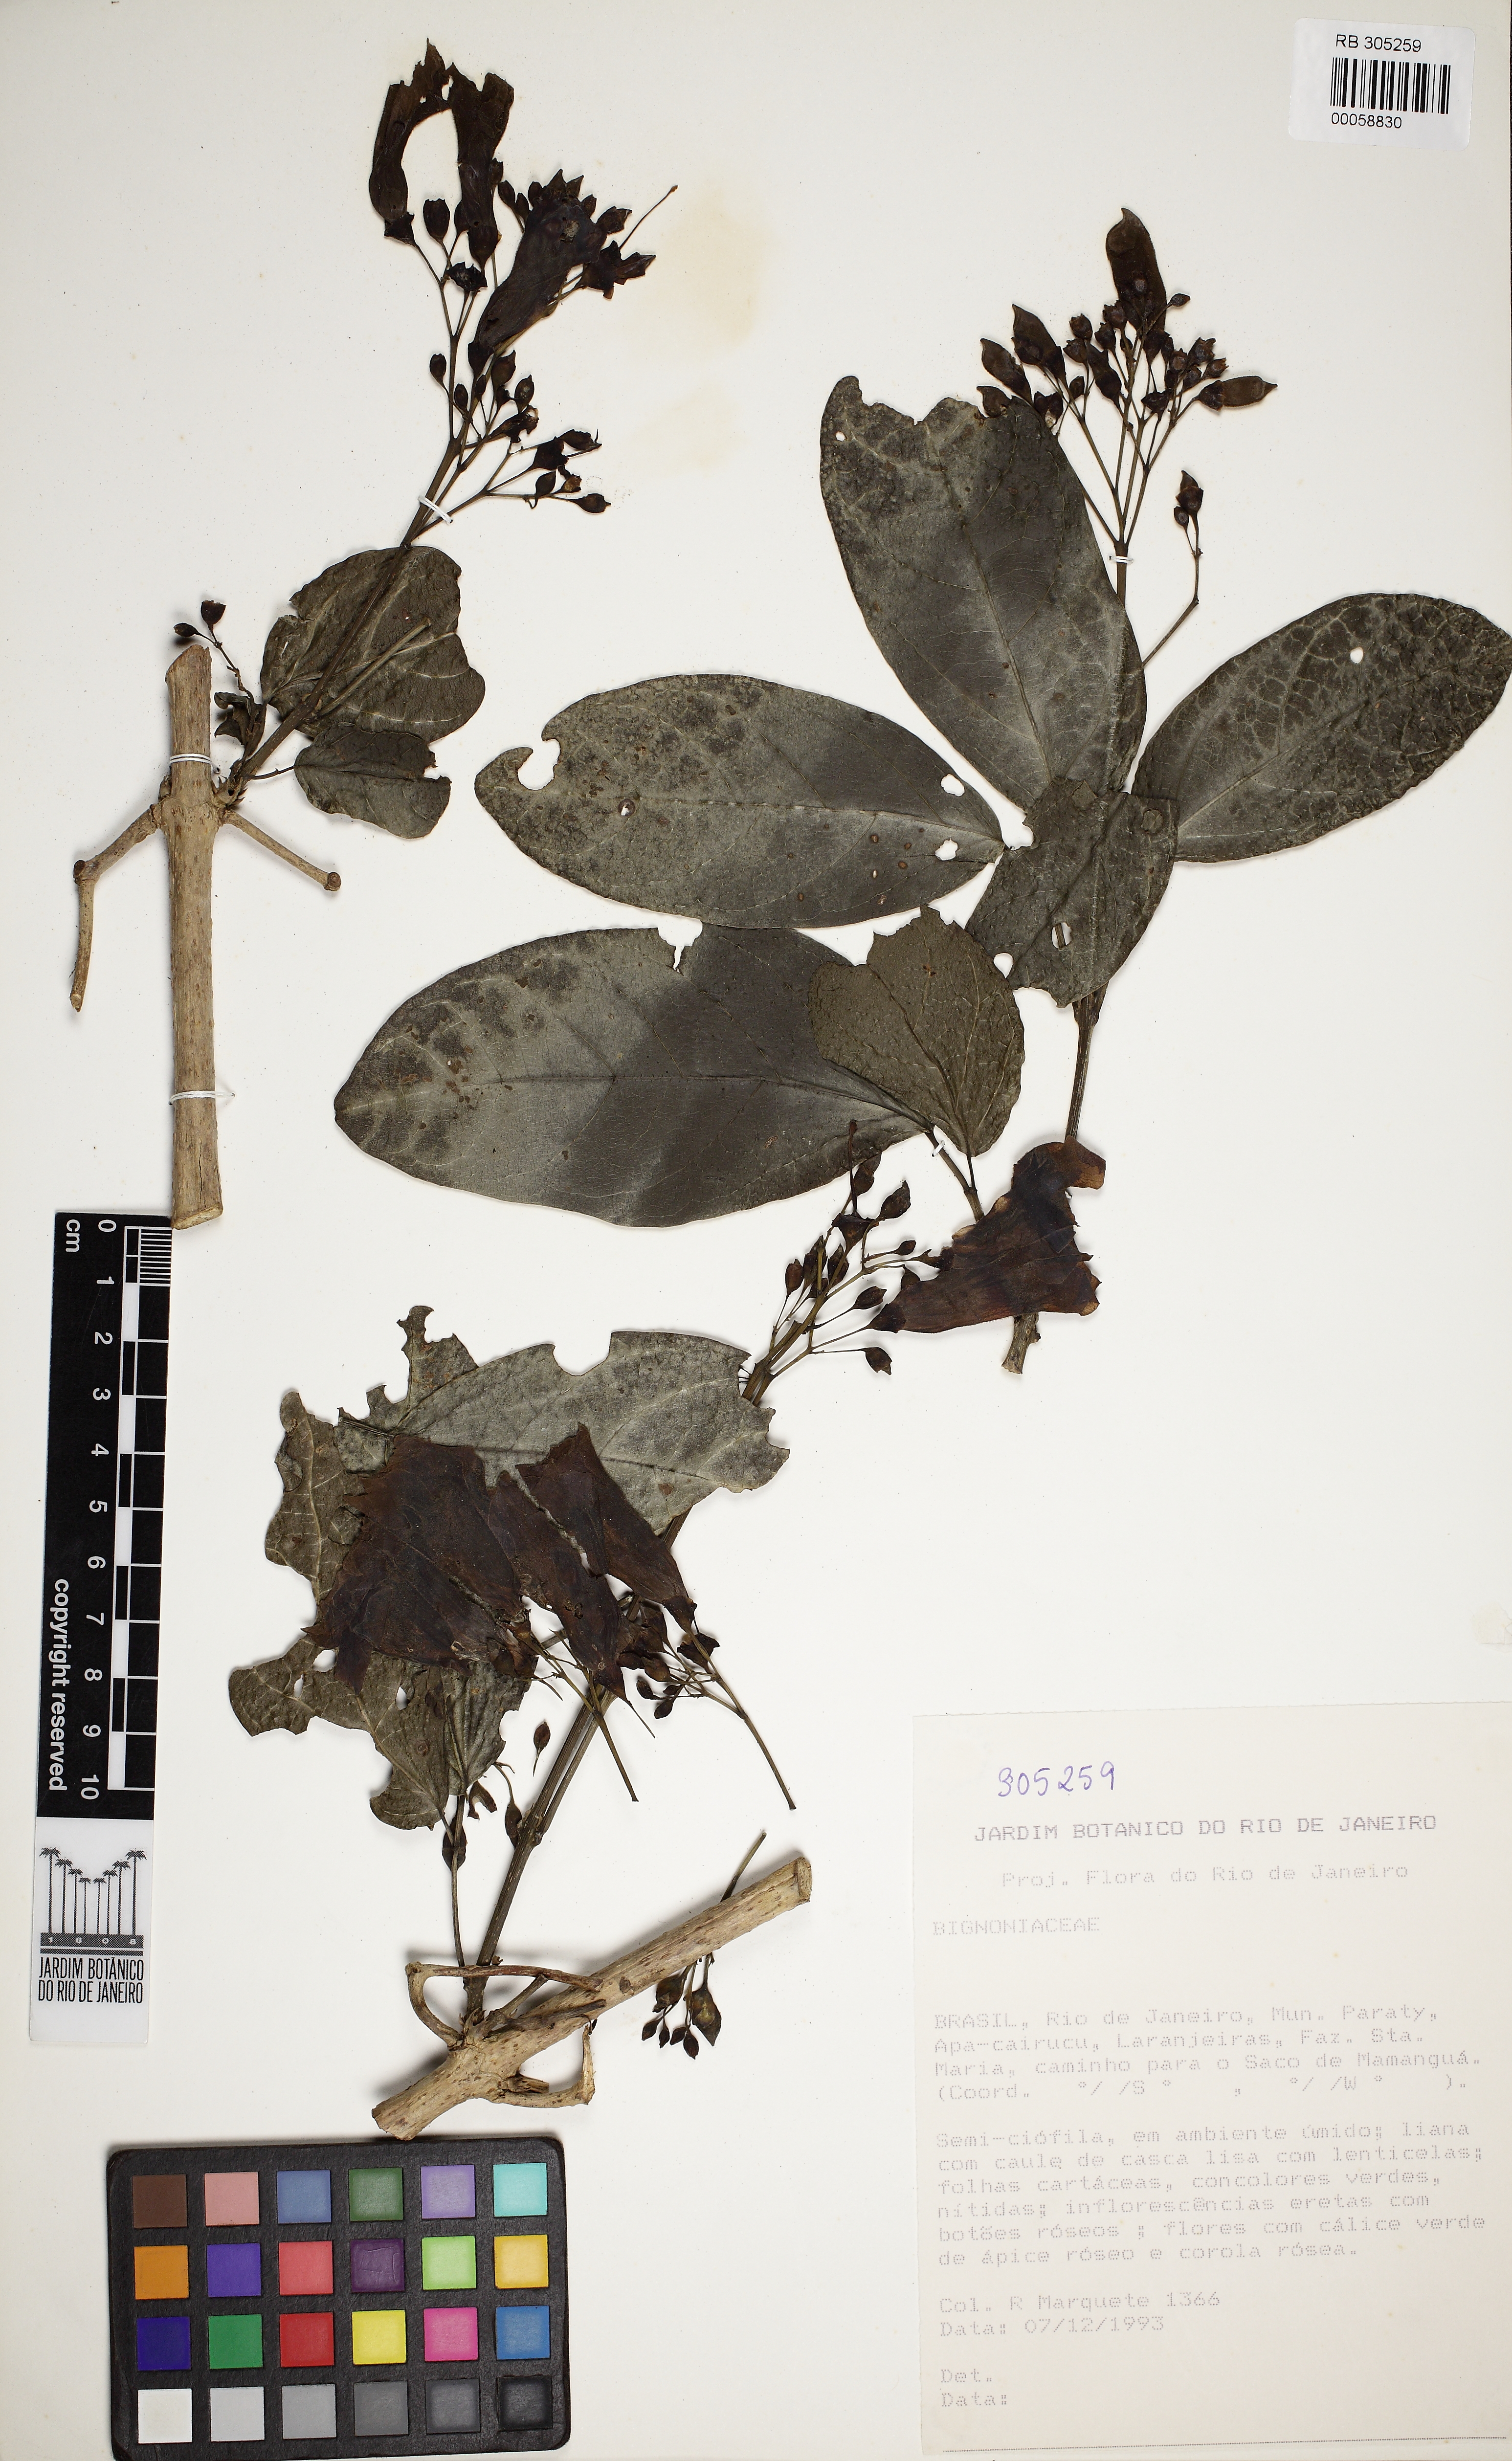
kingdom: Plantae
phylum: Tracheophyta
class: Magnoliopsida
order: Lamiales
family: Bignoniaceae
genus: Tanaecium
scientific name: Tanaecium pyramidatum
